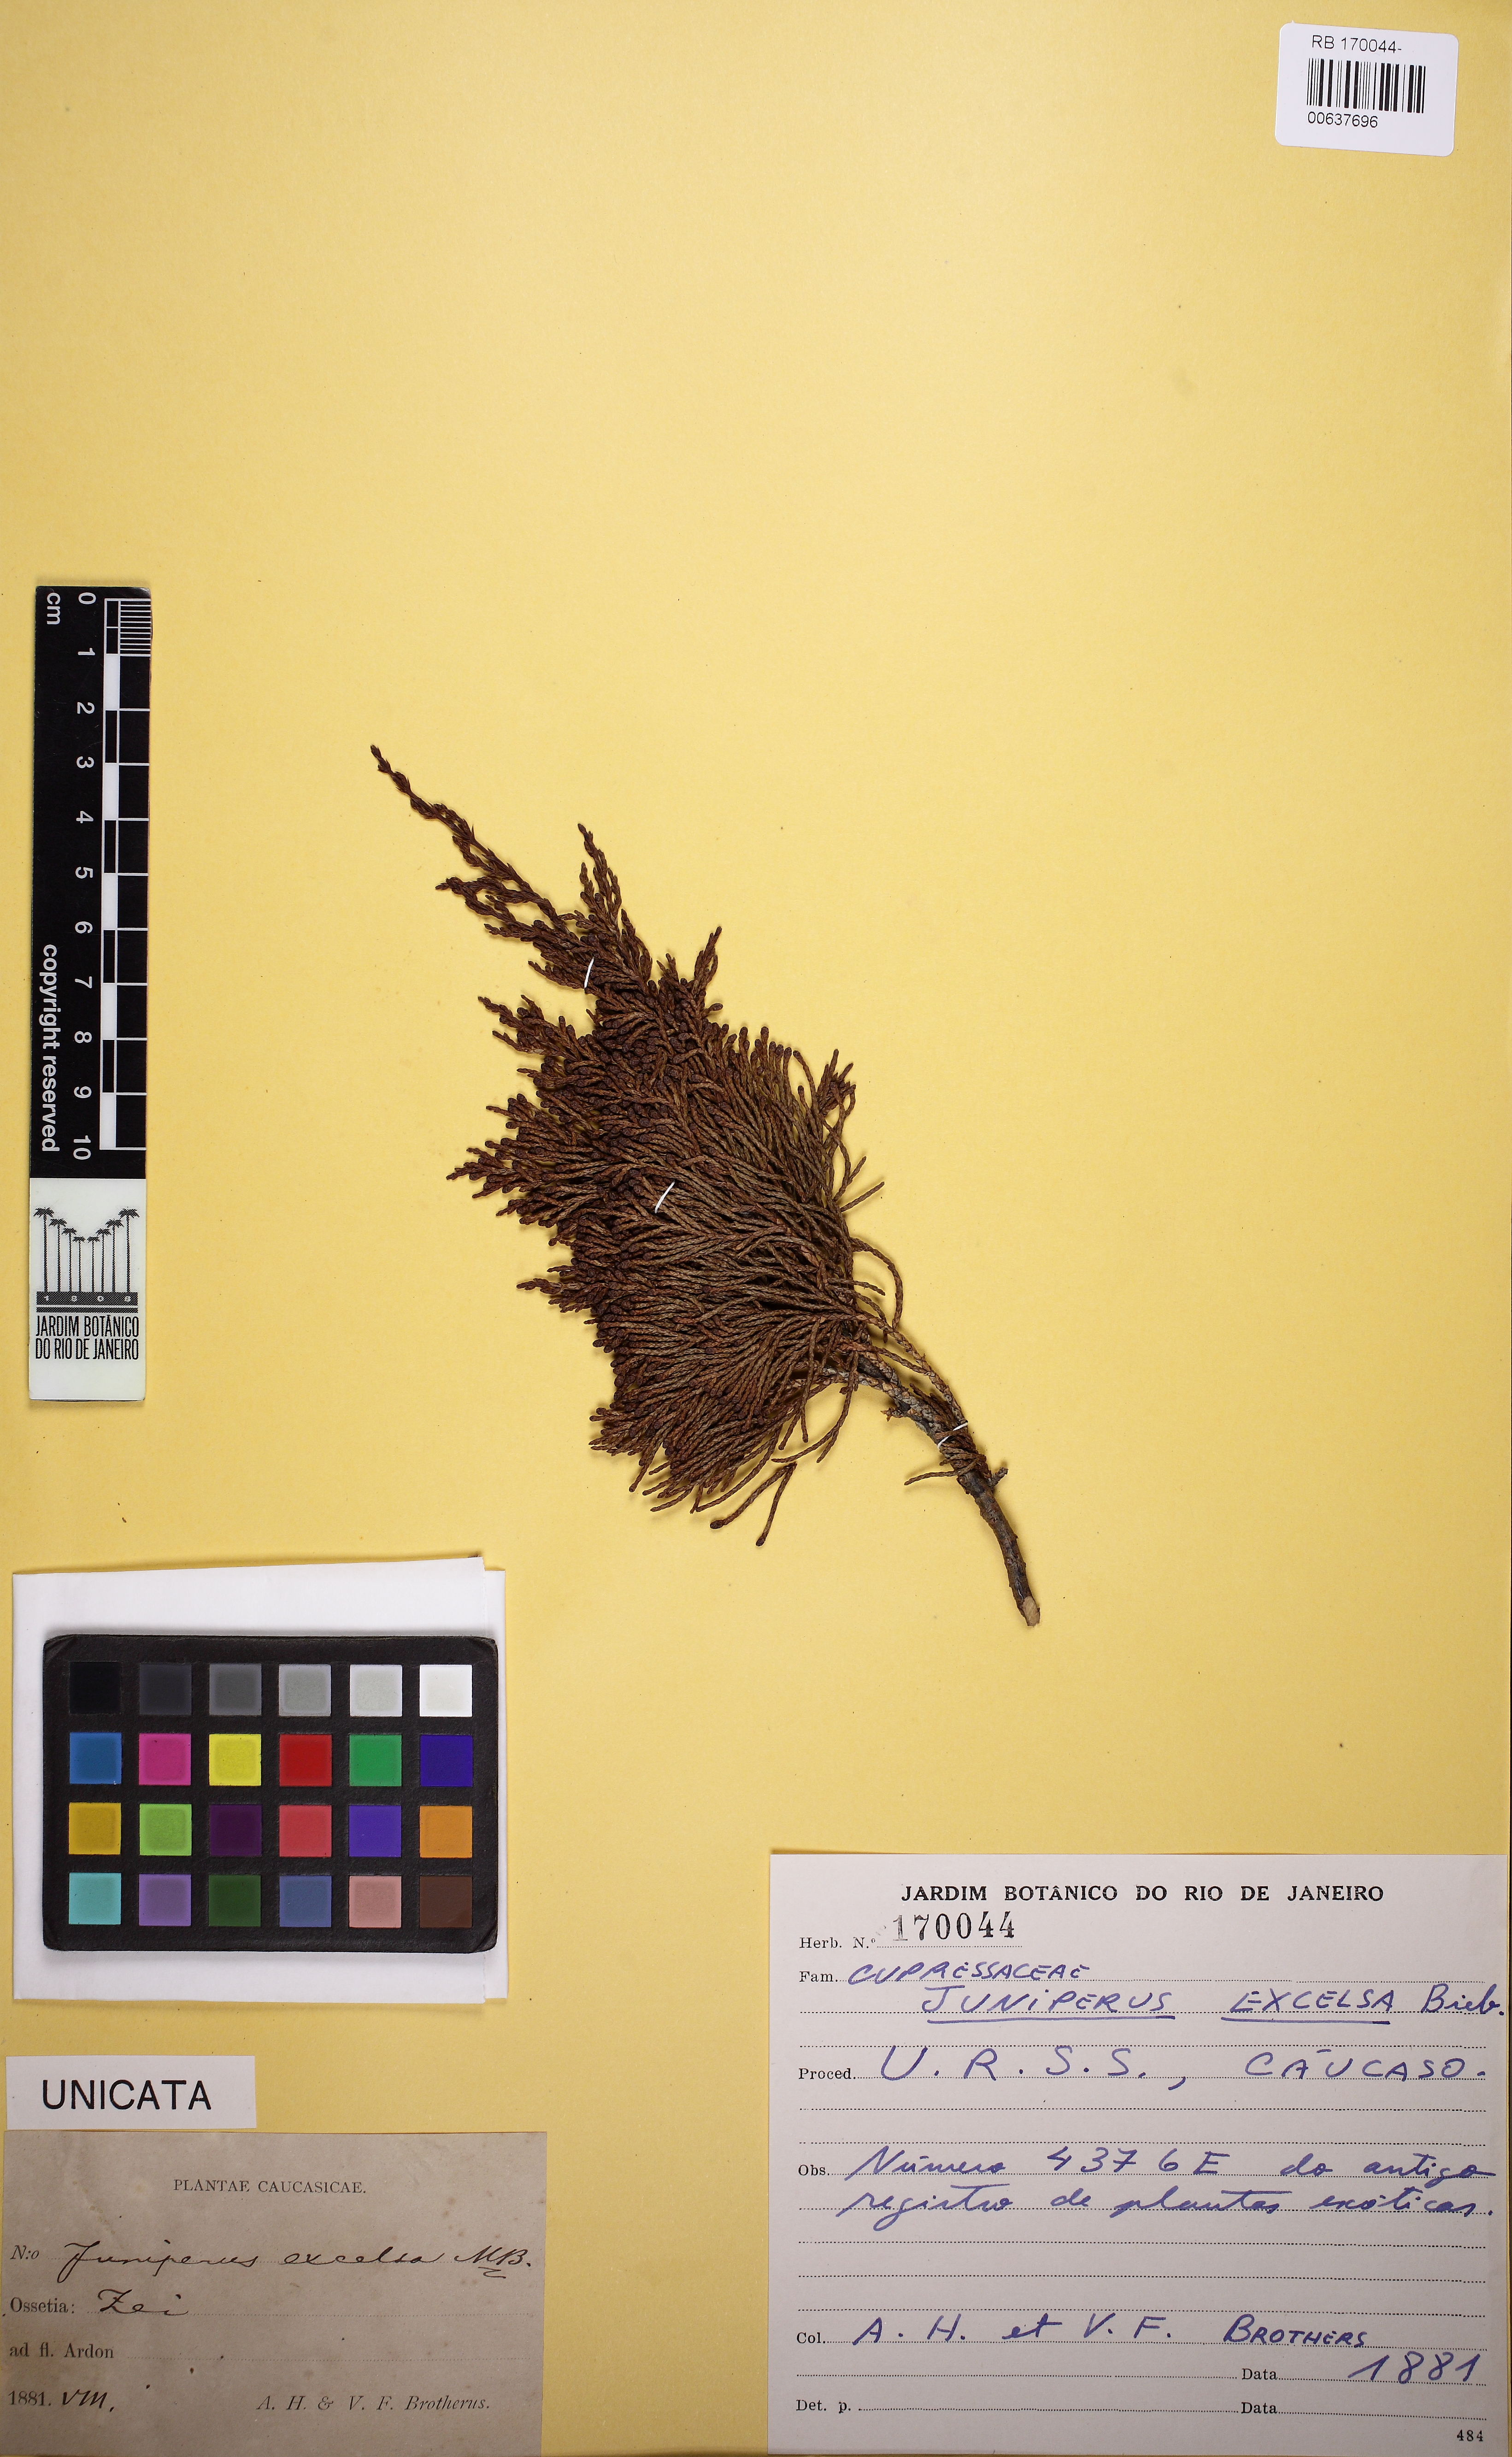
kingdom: Plantae
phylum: Tracheophyta
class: Pinopsida
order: Pinales
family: Cupressaceae
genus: Juniperus
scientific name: Juniperus excelsa
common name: Crimean juniper
